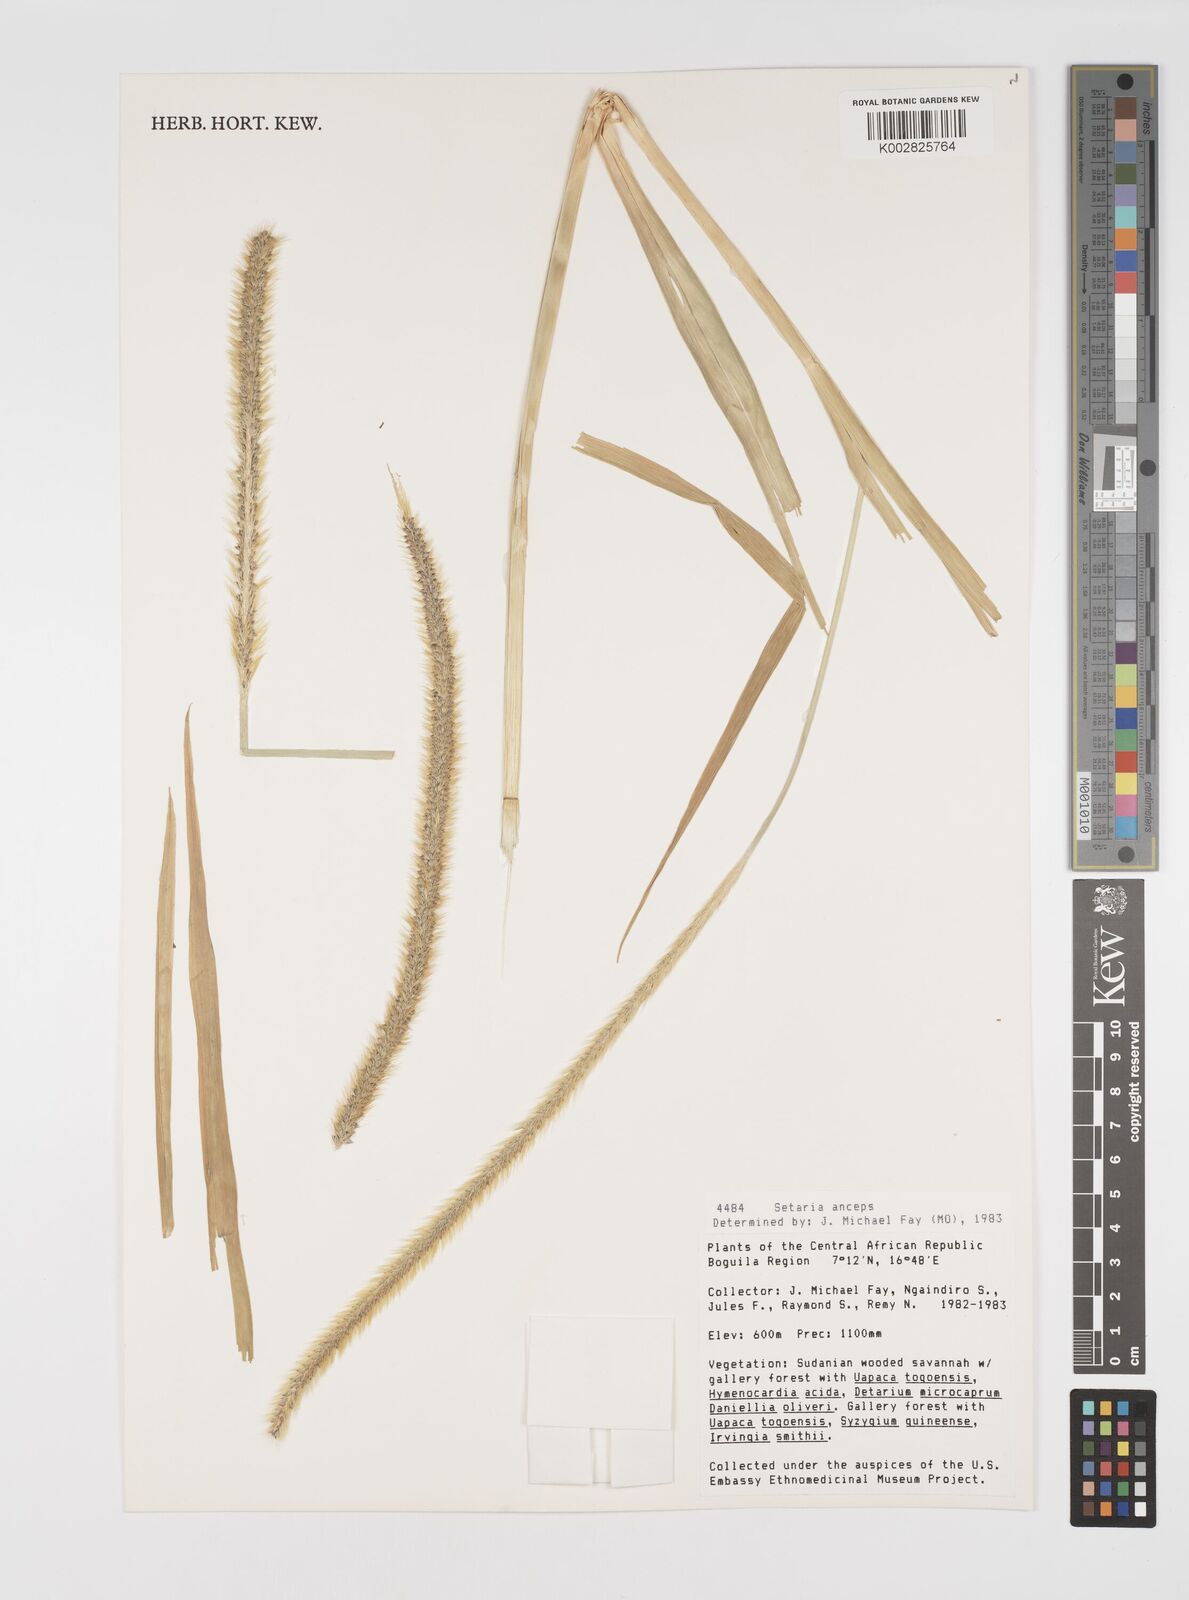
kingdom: Plantae
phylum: Tracheophyta
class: Liliopsida
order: Poales
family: Poaceae
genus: Setaria
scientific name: Setaria sphacelata
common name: African bristlegrass
